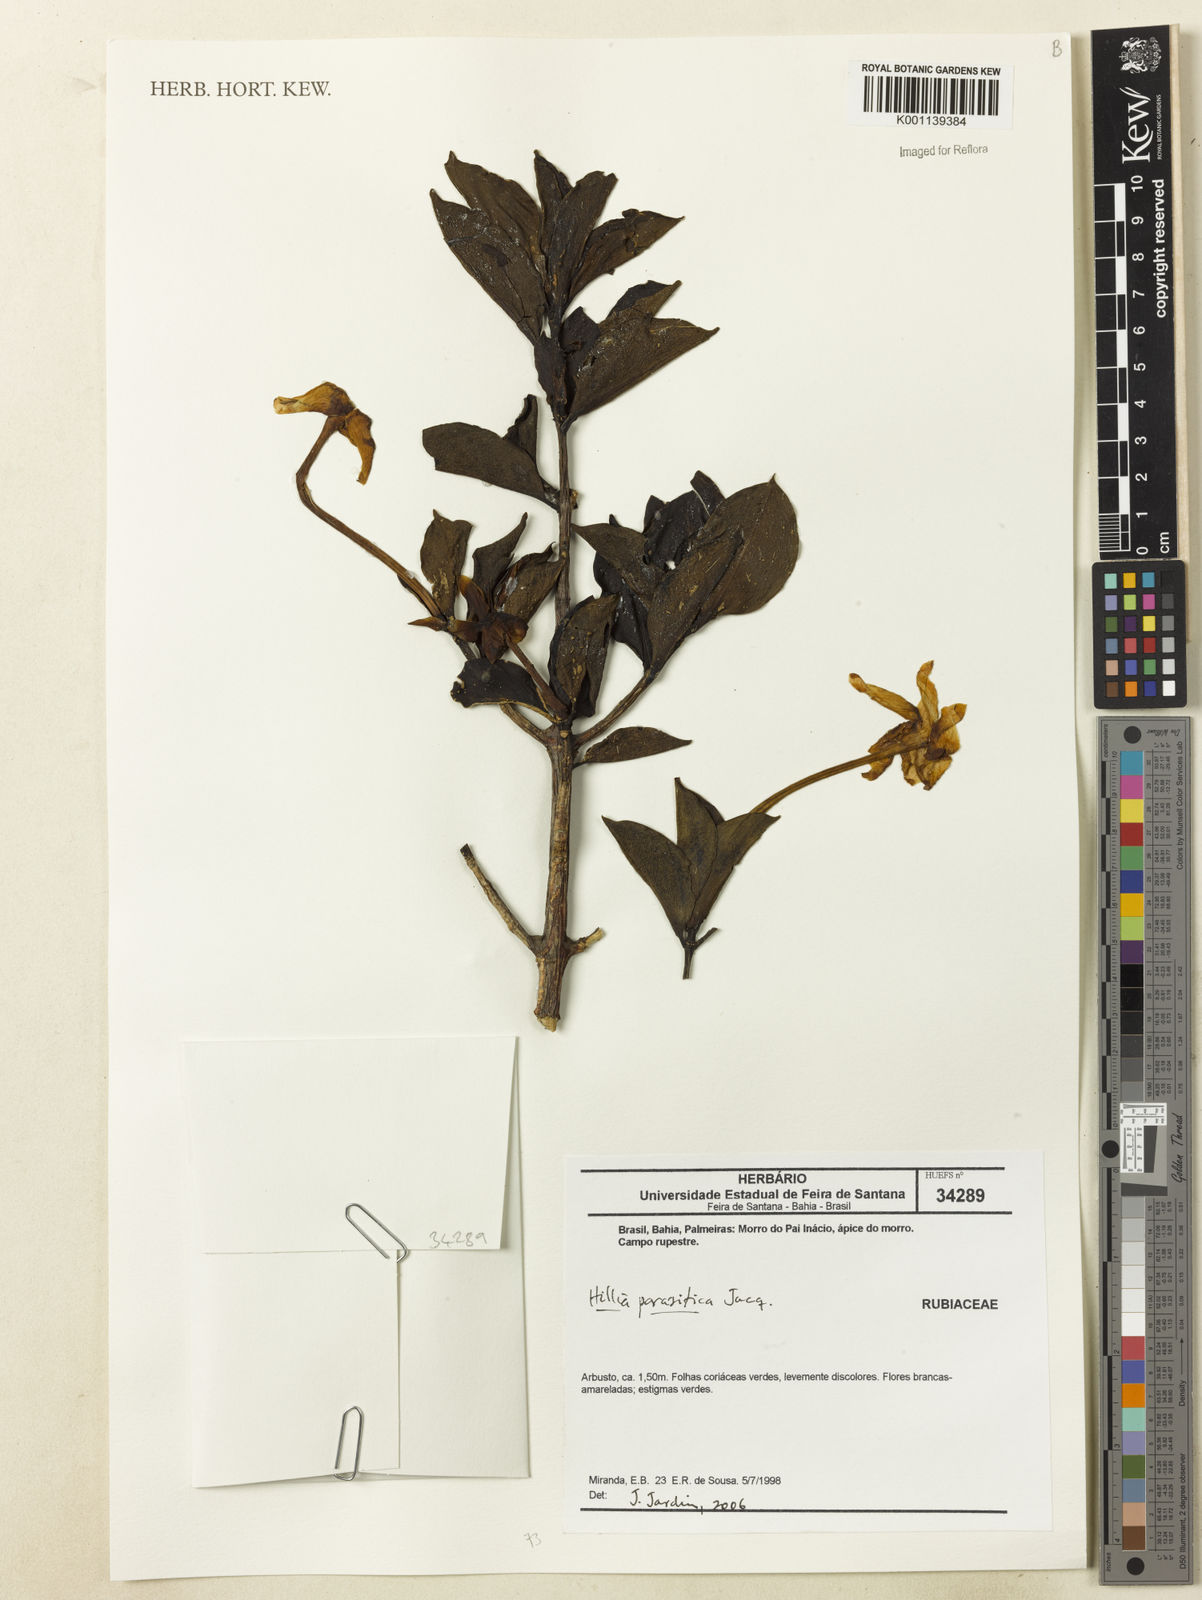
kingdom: Plantae
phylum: Tracheophyta
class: Magnoliopsida
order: Gentianales
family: Rubiaceae
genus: Hillia
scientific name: Hillia parasitica
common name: Morning star
